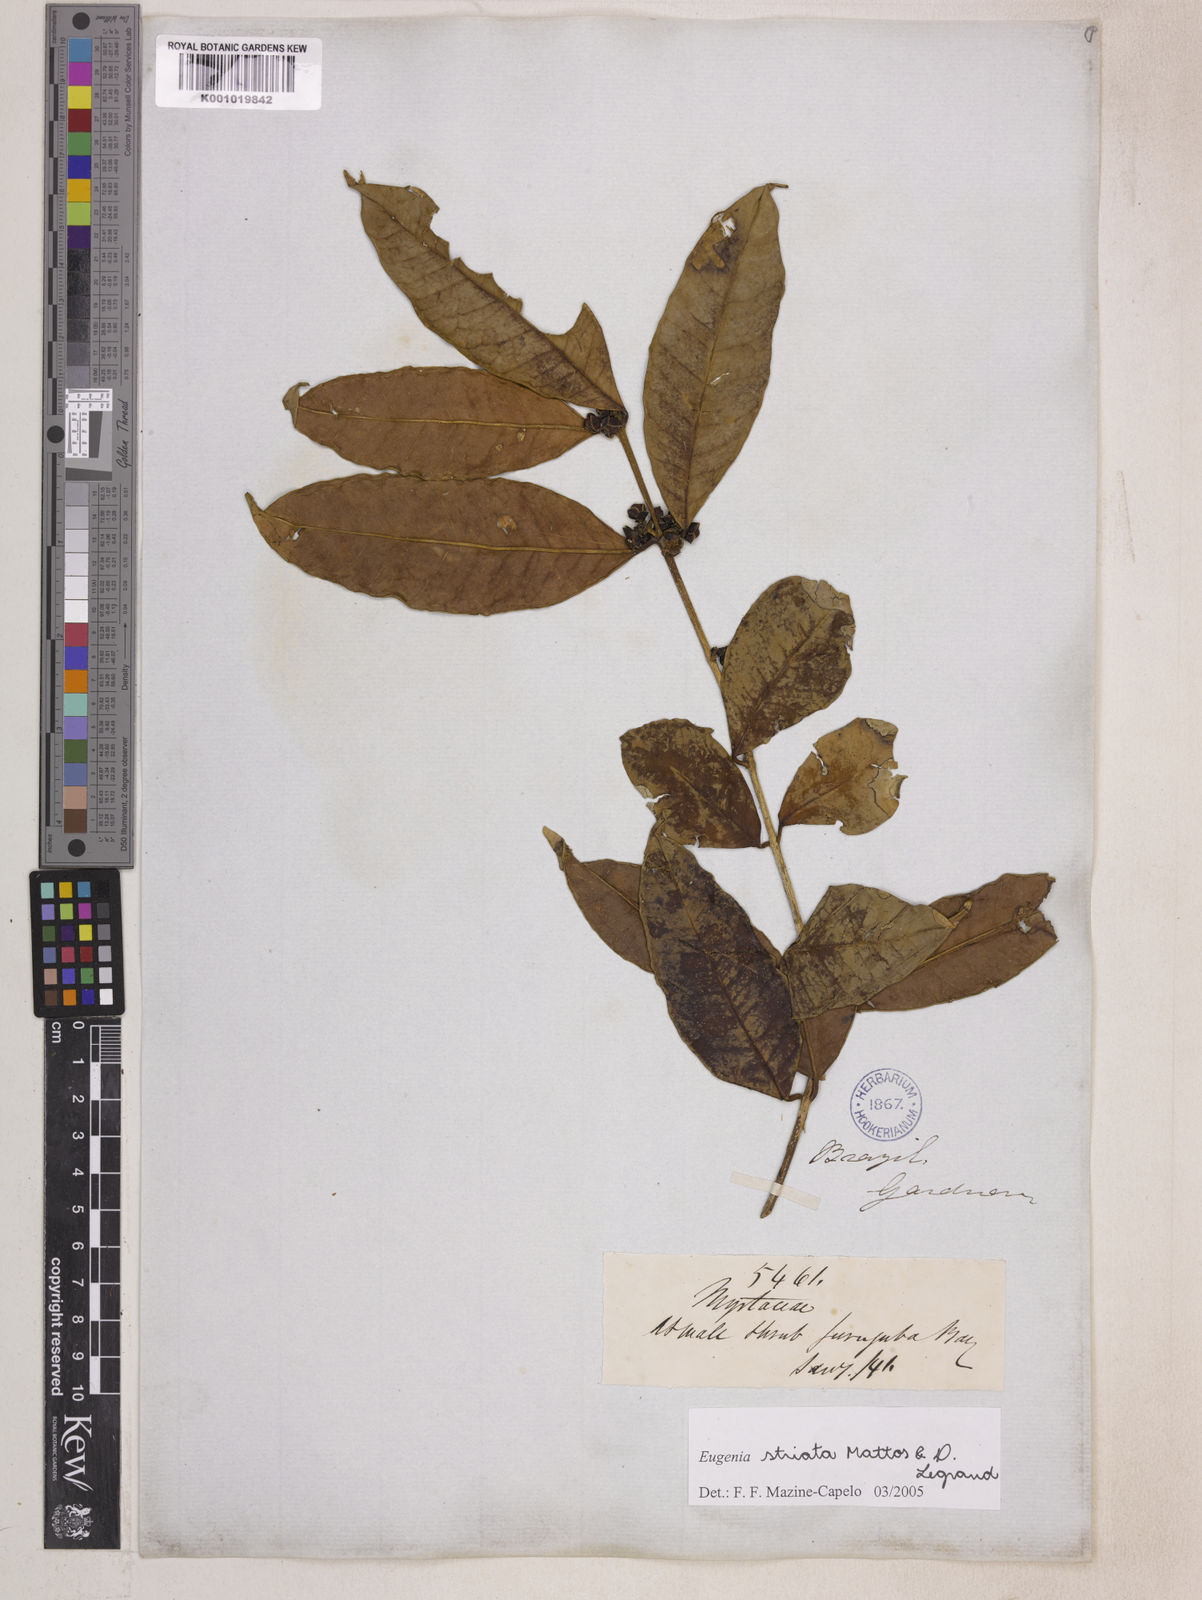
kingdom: Plantae
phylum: Tracheophyta
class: Magnoliopsida
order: Myrtales
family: Myrtaceae
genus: Eugenia
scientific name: Eugenia oblongata
